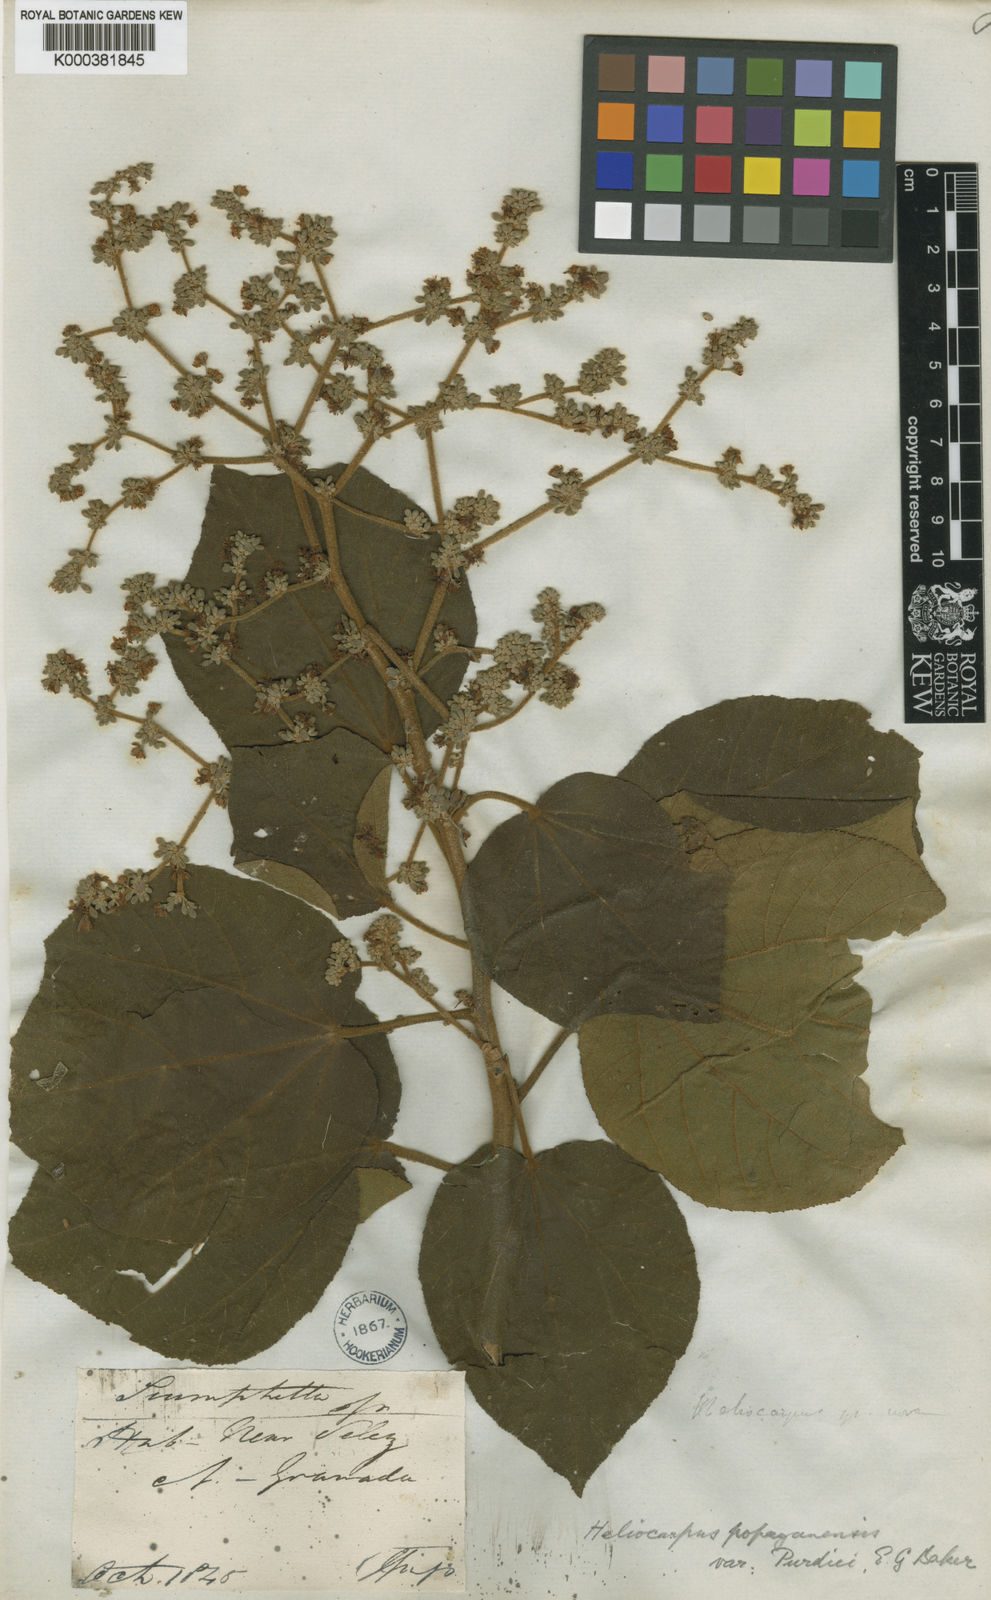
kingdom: Plantae
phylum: Tracheophyta
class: Magnoliopsida
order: Malvales
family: Malvaceae
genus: Heliocarpus
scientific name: Heliocarpus americanus
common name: White moho
